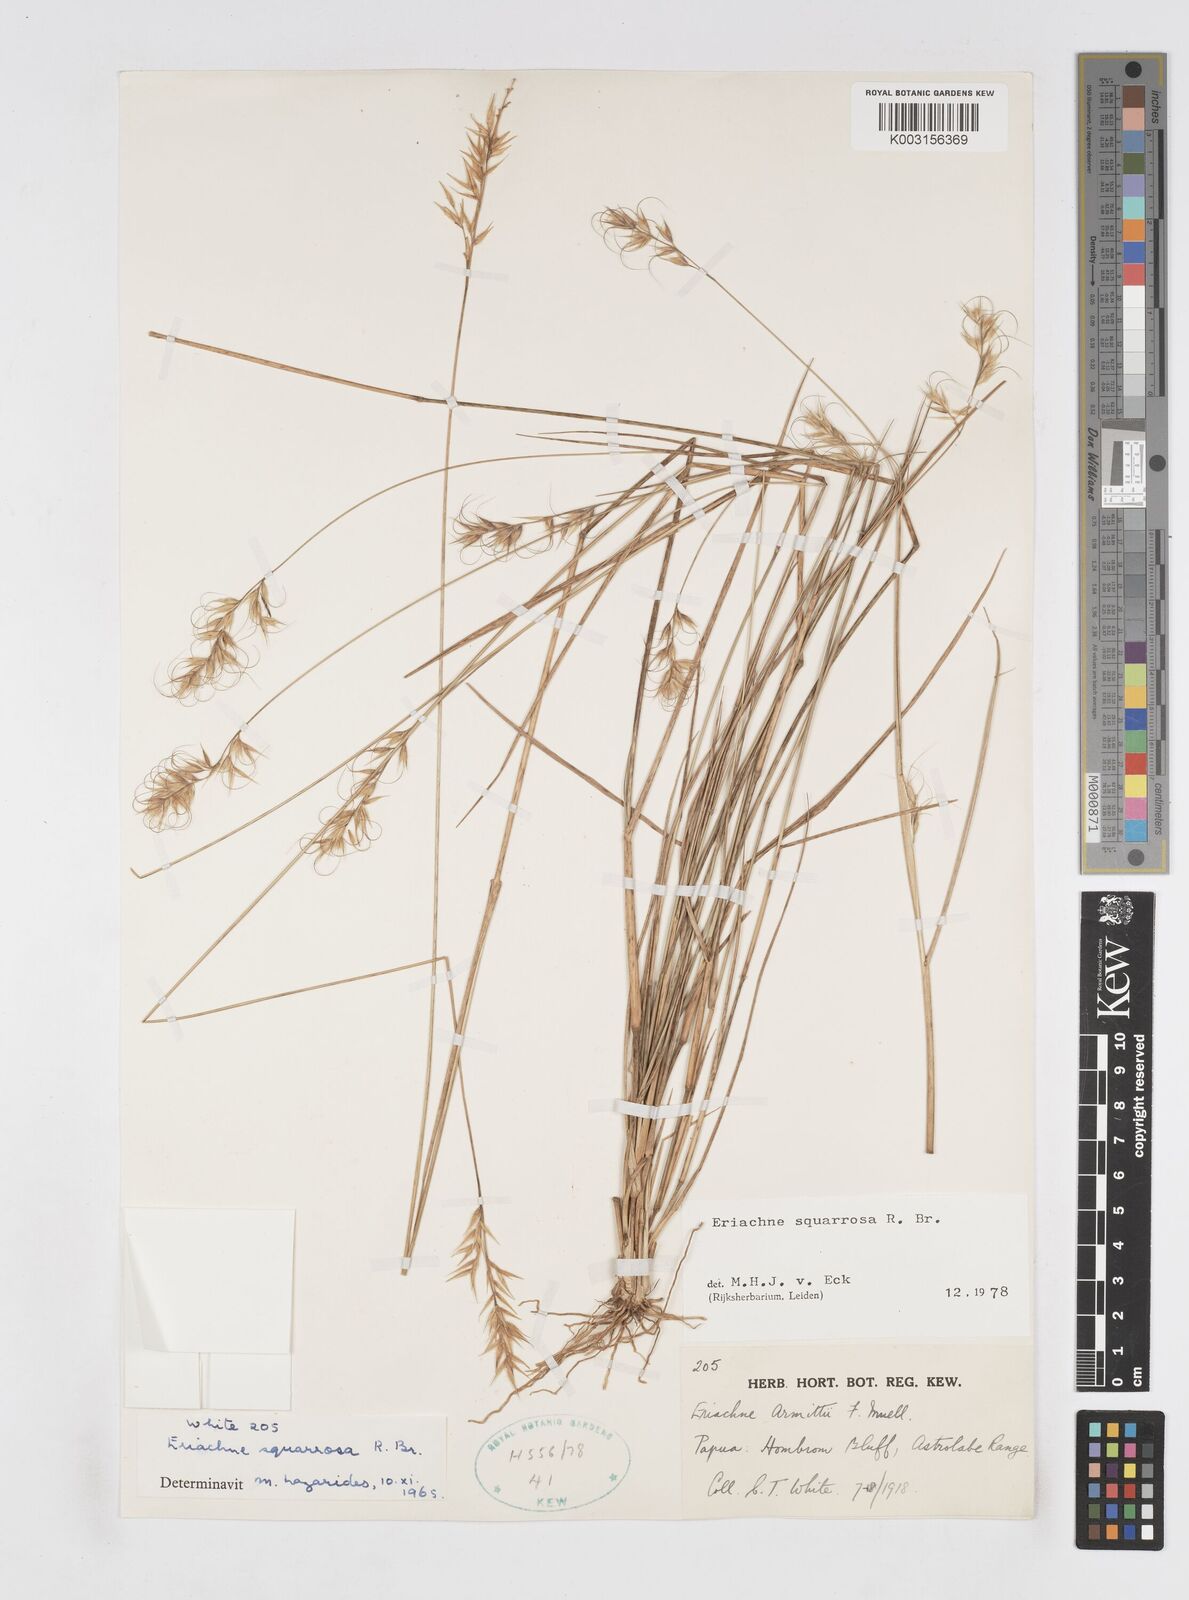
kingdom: Plantae
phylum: Tracheophyta
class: Liliopsida
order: Poales
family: Poaceae
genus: Eriachne
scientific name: Eriachne squarrosa
